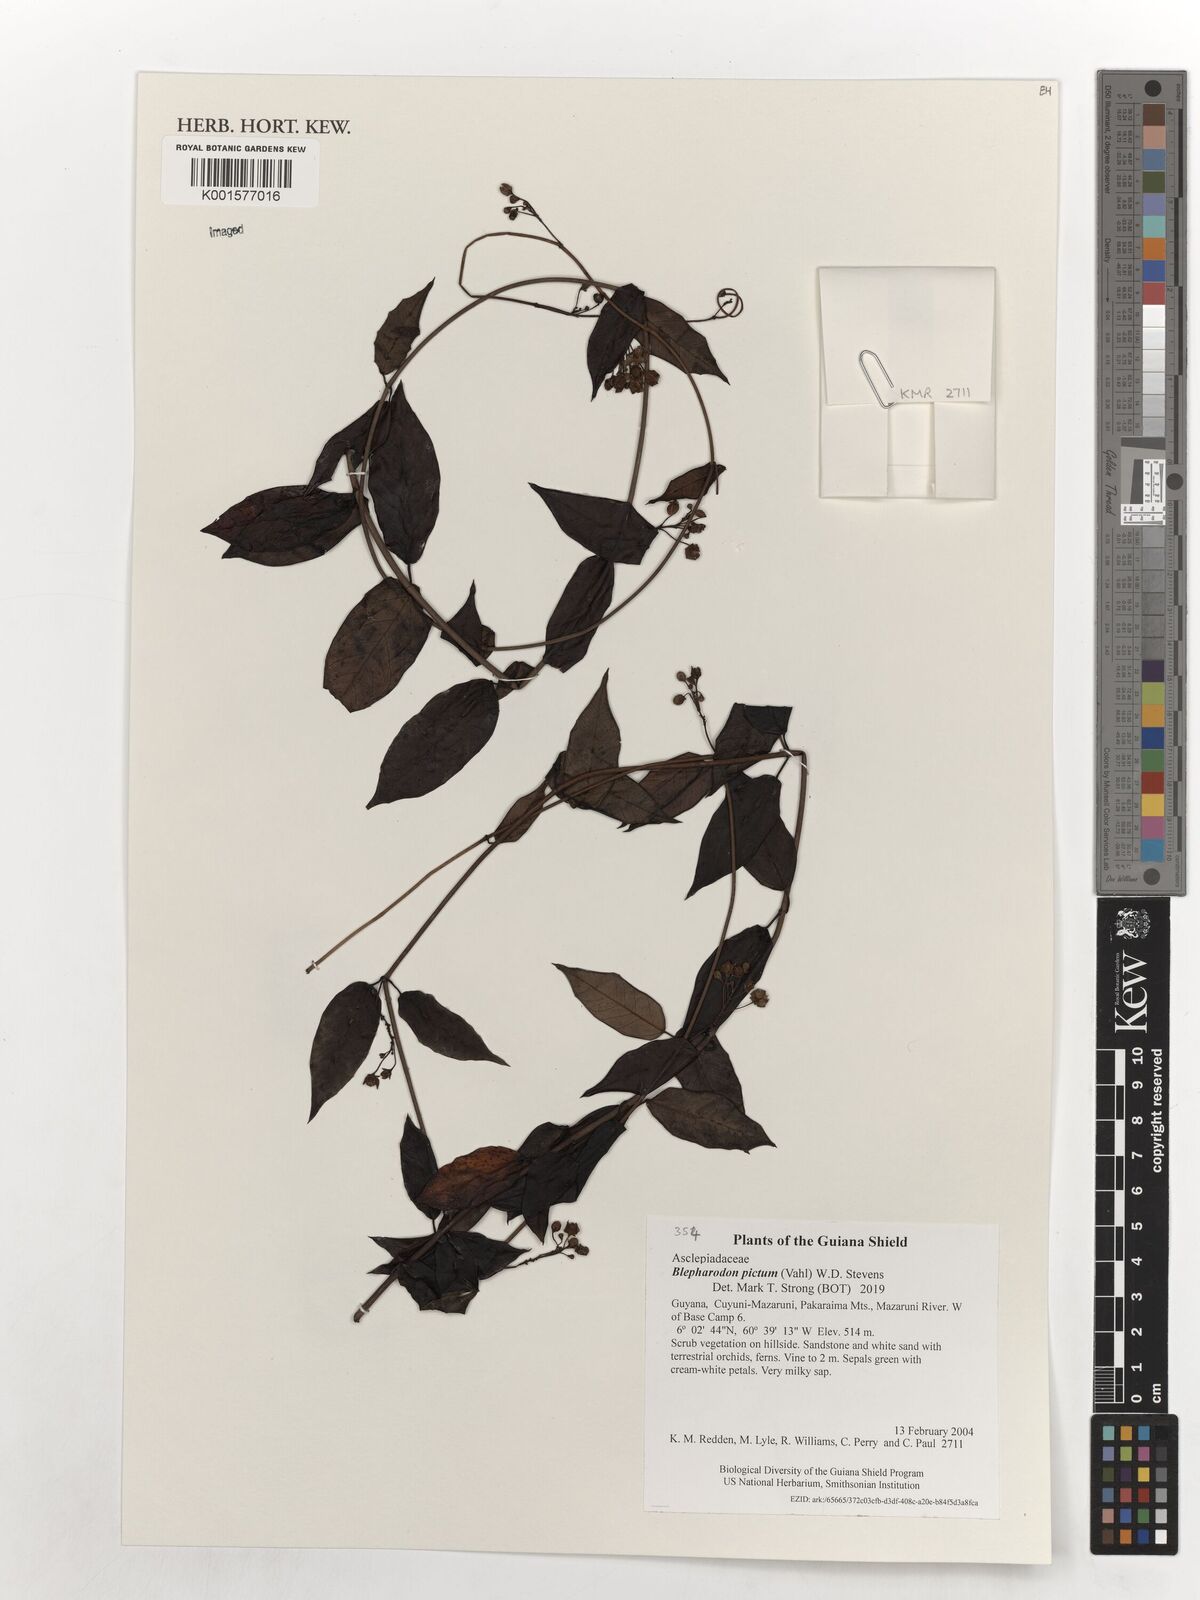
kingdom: Plantae
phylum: Tracheophyta
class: Magnoliopsida
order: Gentianales
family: Apocynaceae
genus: Blepharodon
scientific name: Blepharodon pictum
